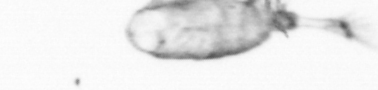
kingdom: Animalia
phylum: Arthropoda
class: Copepoda
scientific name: Copepoda
